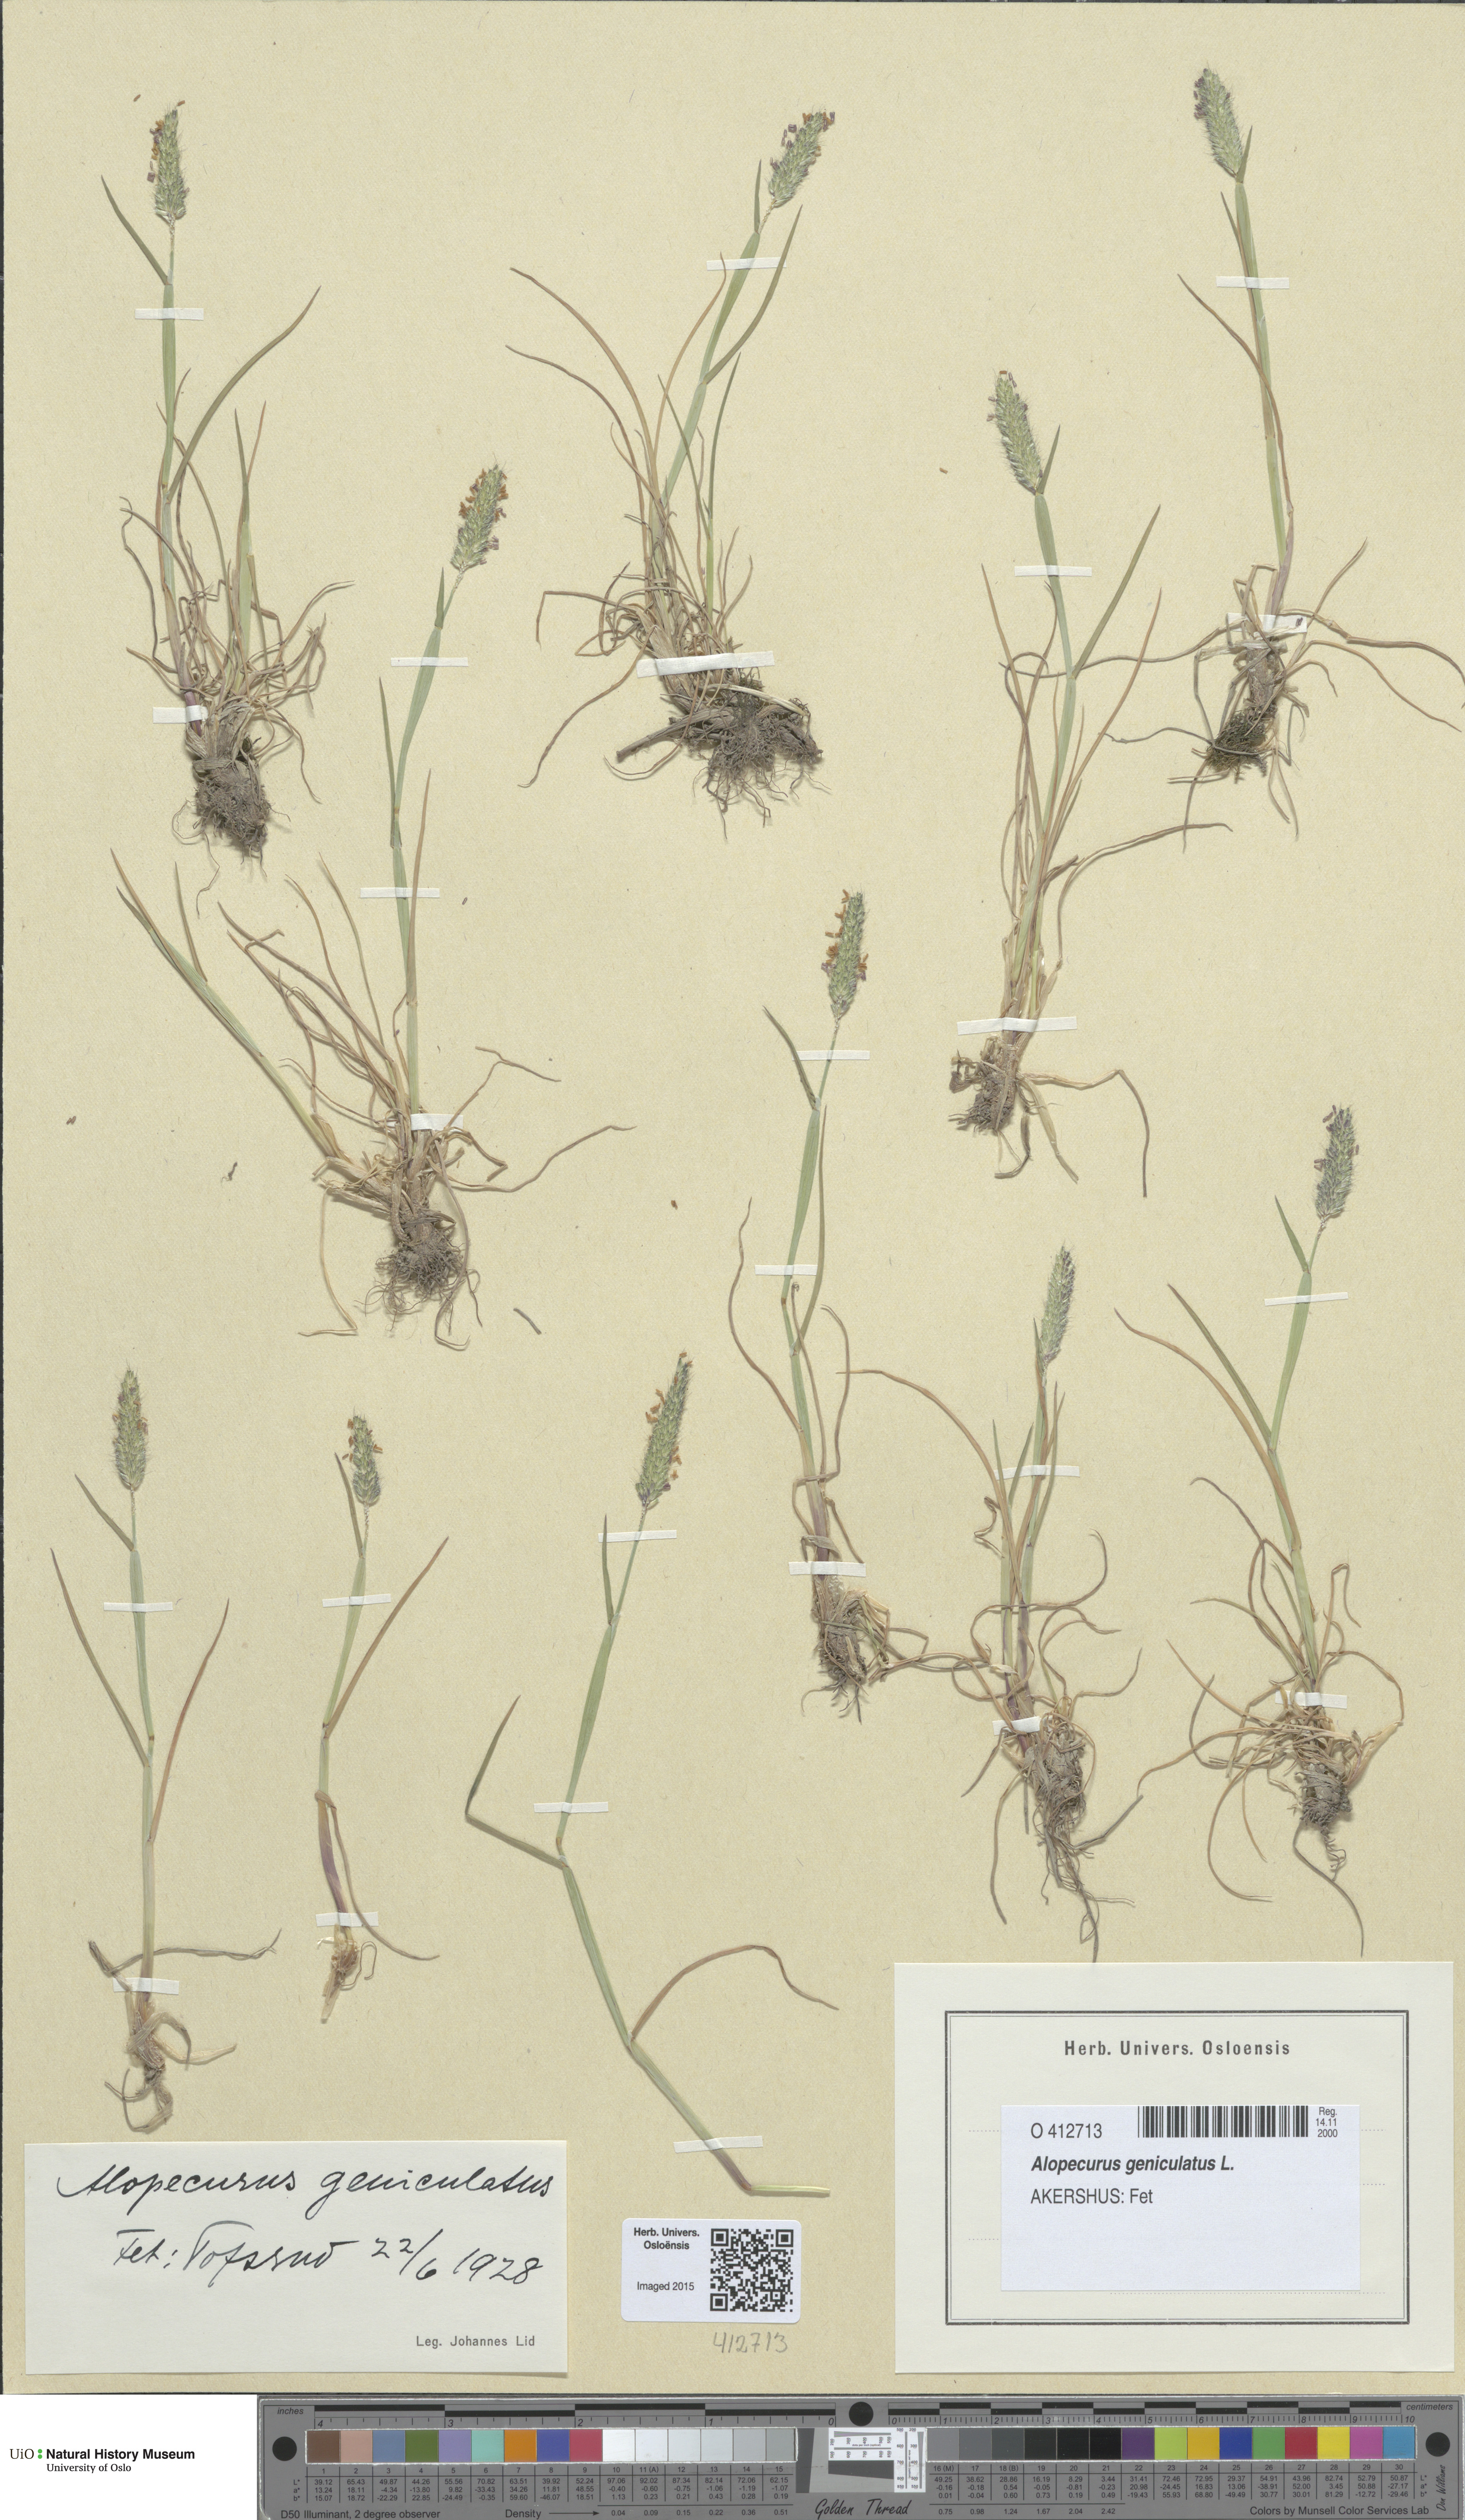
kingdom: Plantae
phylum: Tracheophyta
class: Liliopsida
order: Poales
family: Poaceae
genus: Alopecurus
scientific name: Alopecurus geniculatus
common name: Water foxtail
